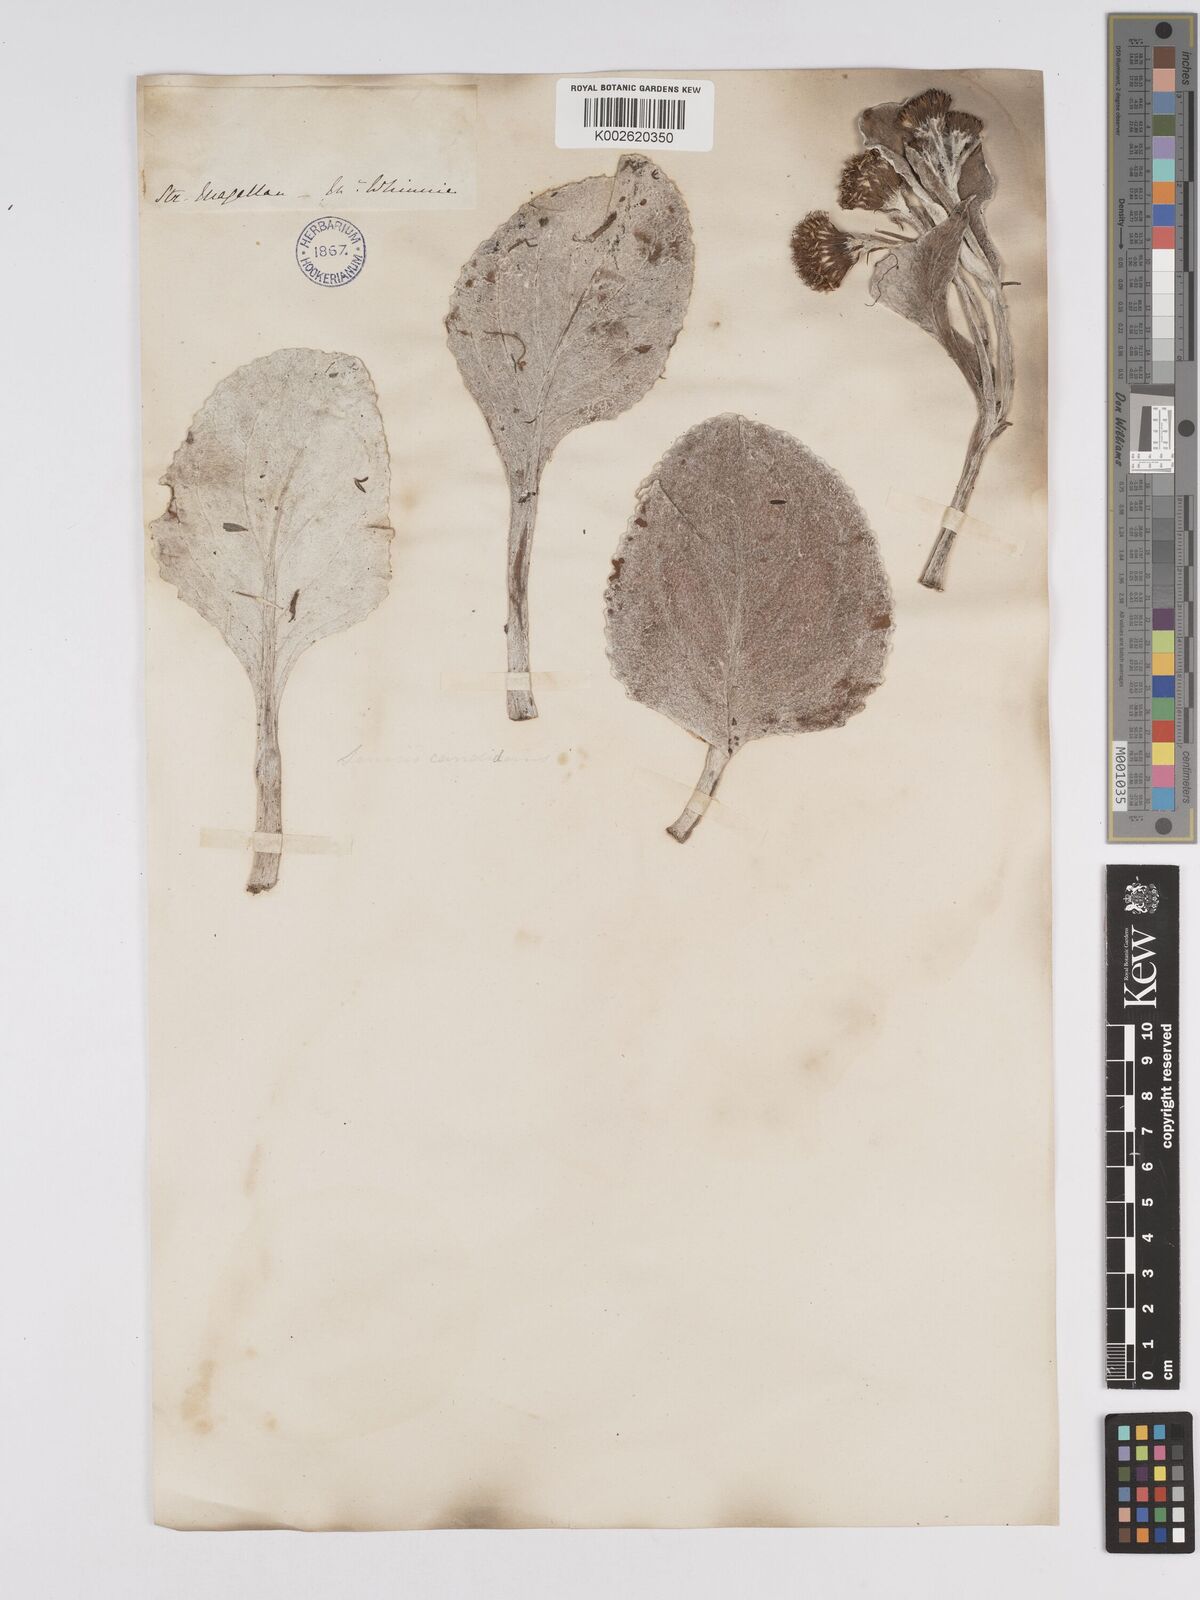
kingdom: Plantae
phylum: Tracheophyta
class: Magnoliopsida
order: Asterales
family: Asteraceae
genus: Senecio
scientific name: Senecio candidans
